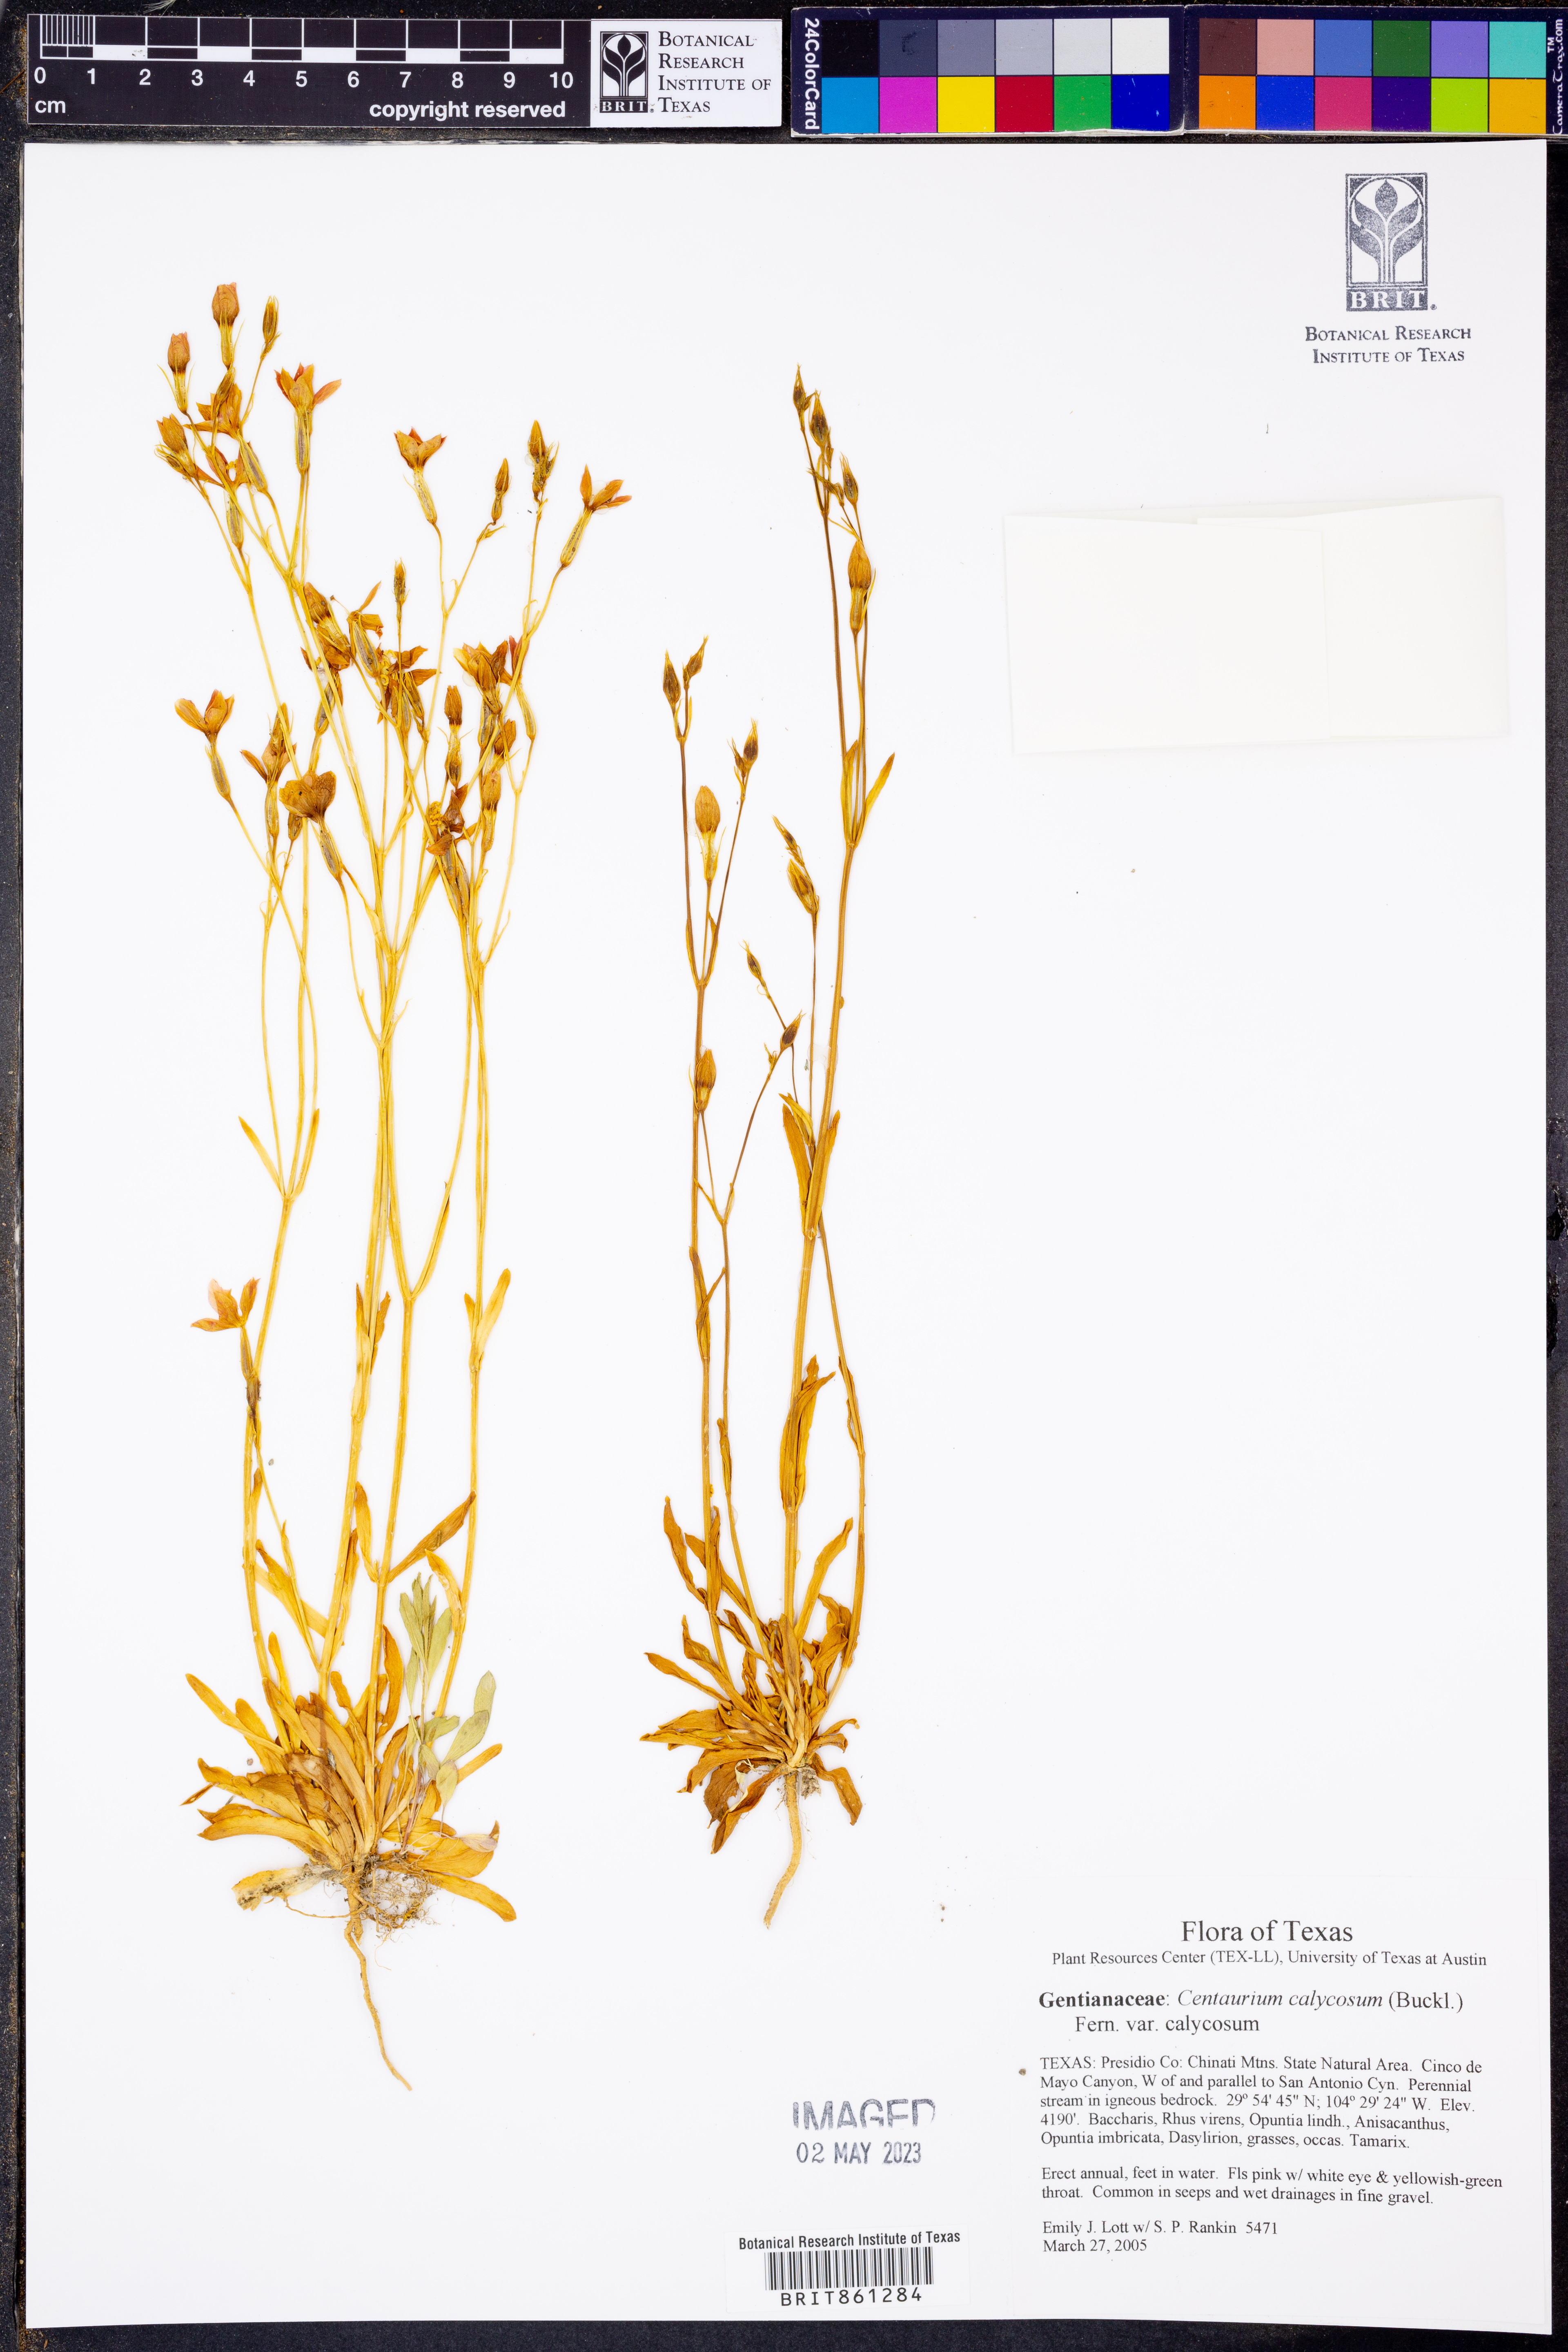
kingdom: Plantae
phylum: Tracheophyta
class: Magnoliopsida
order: Gentianales
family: Gentianaceae
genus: Zeltnera
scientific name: Zeltnera calycosa
